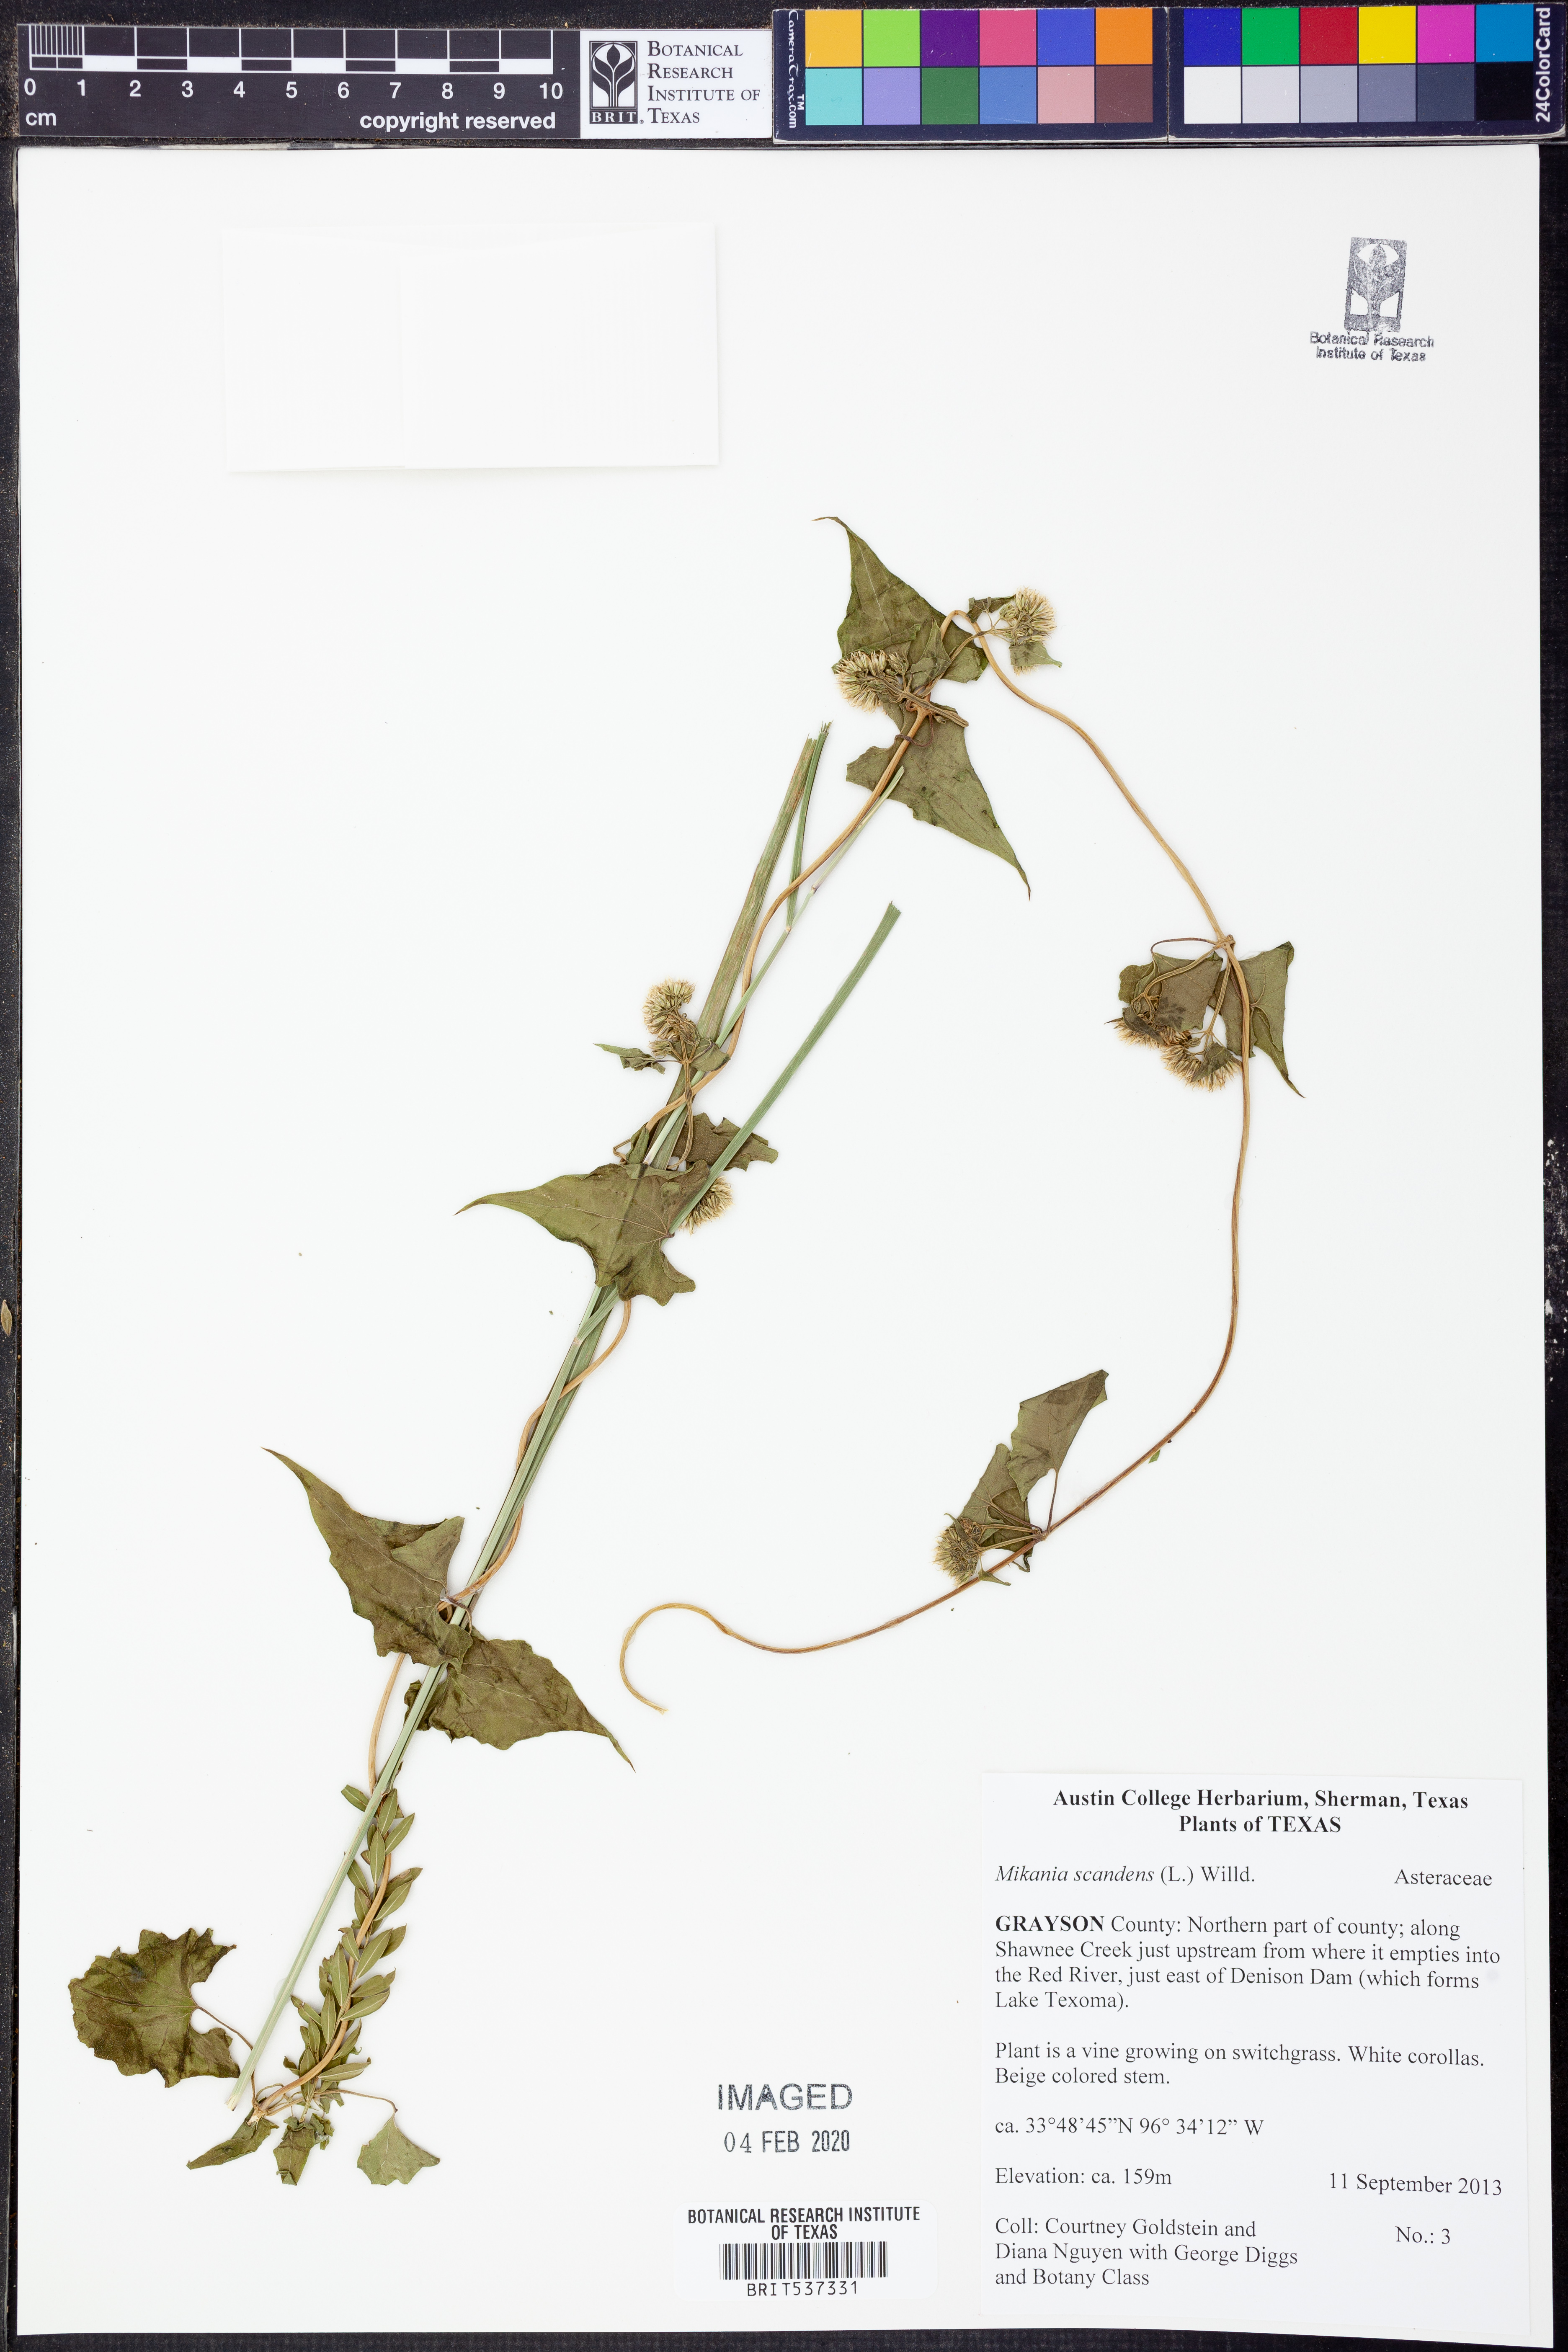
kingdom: Plantae
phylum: Tracheophyta
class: Magnoliopsida
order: Asterales
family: Asteraceae
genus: Mikania
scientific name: Mikania scandens
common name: Climbing hempvine
